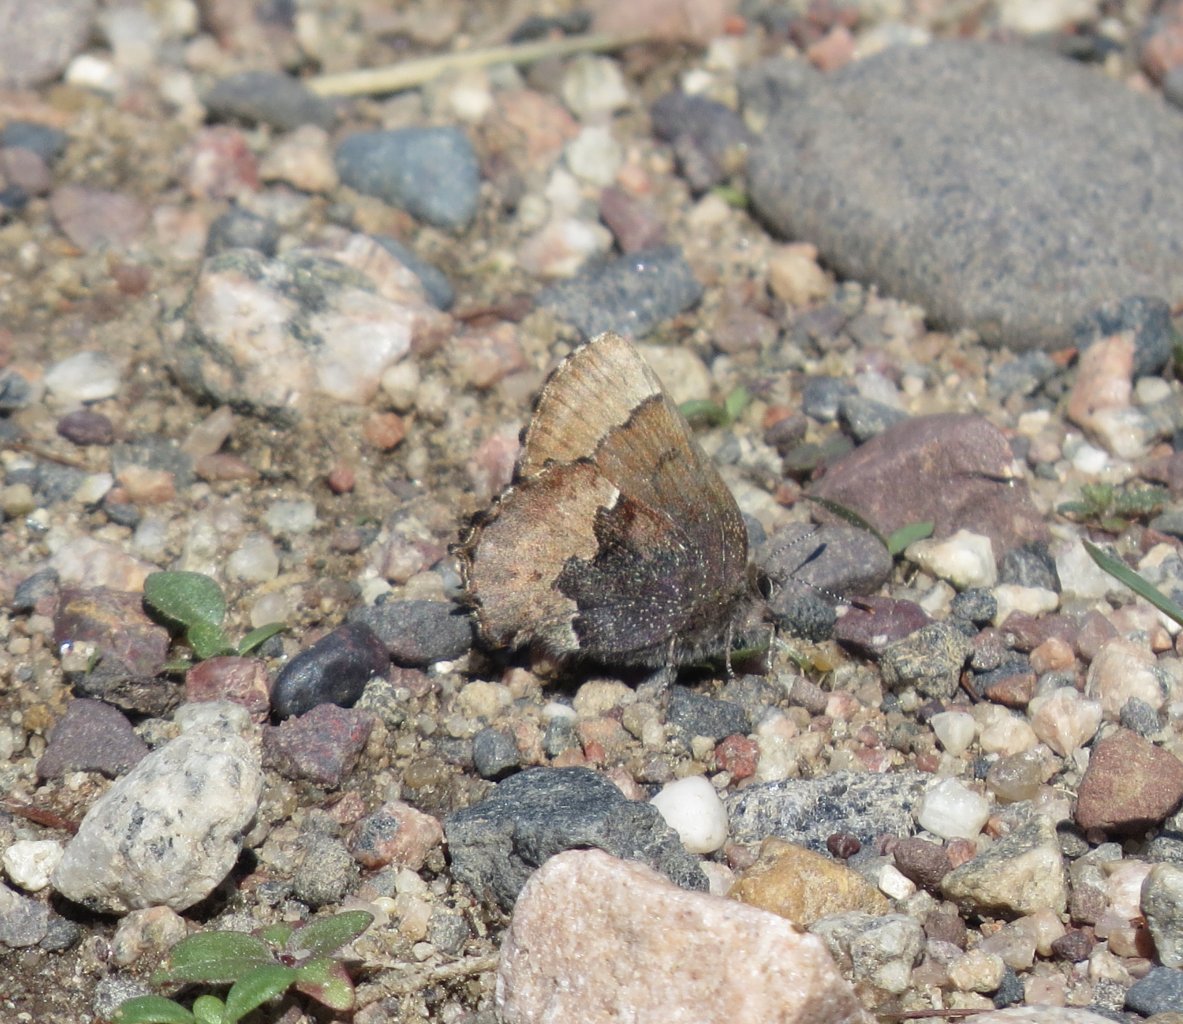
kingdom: Animalia
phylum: Arthropoda
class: Insecta
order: Lepidoptera
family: Lycaenidae
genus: Incisalia
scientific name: Incisalia henrici
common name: Henry's Elfin
